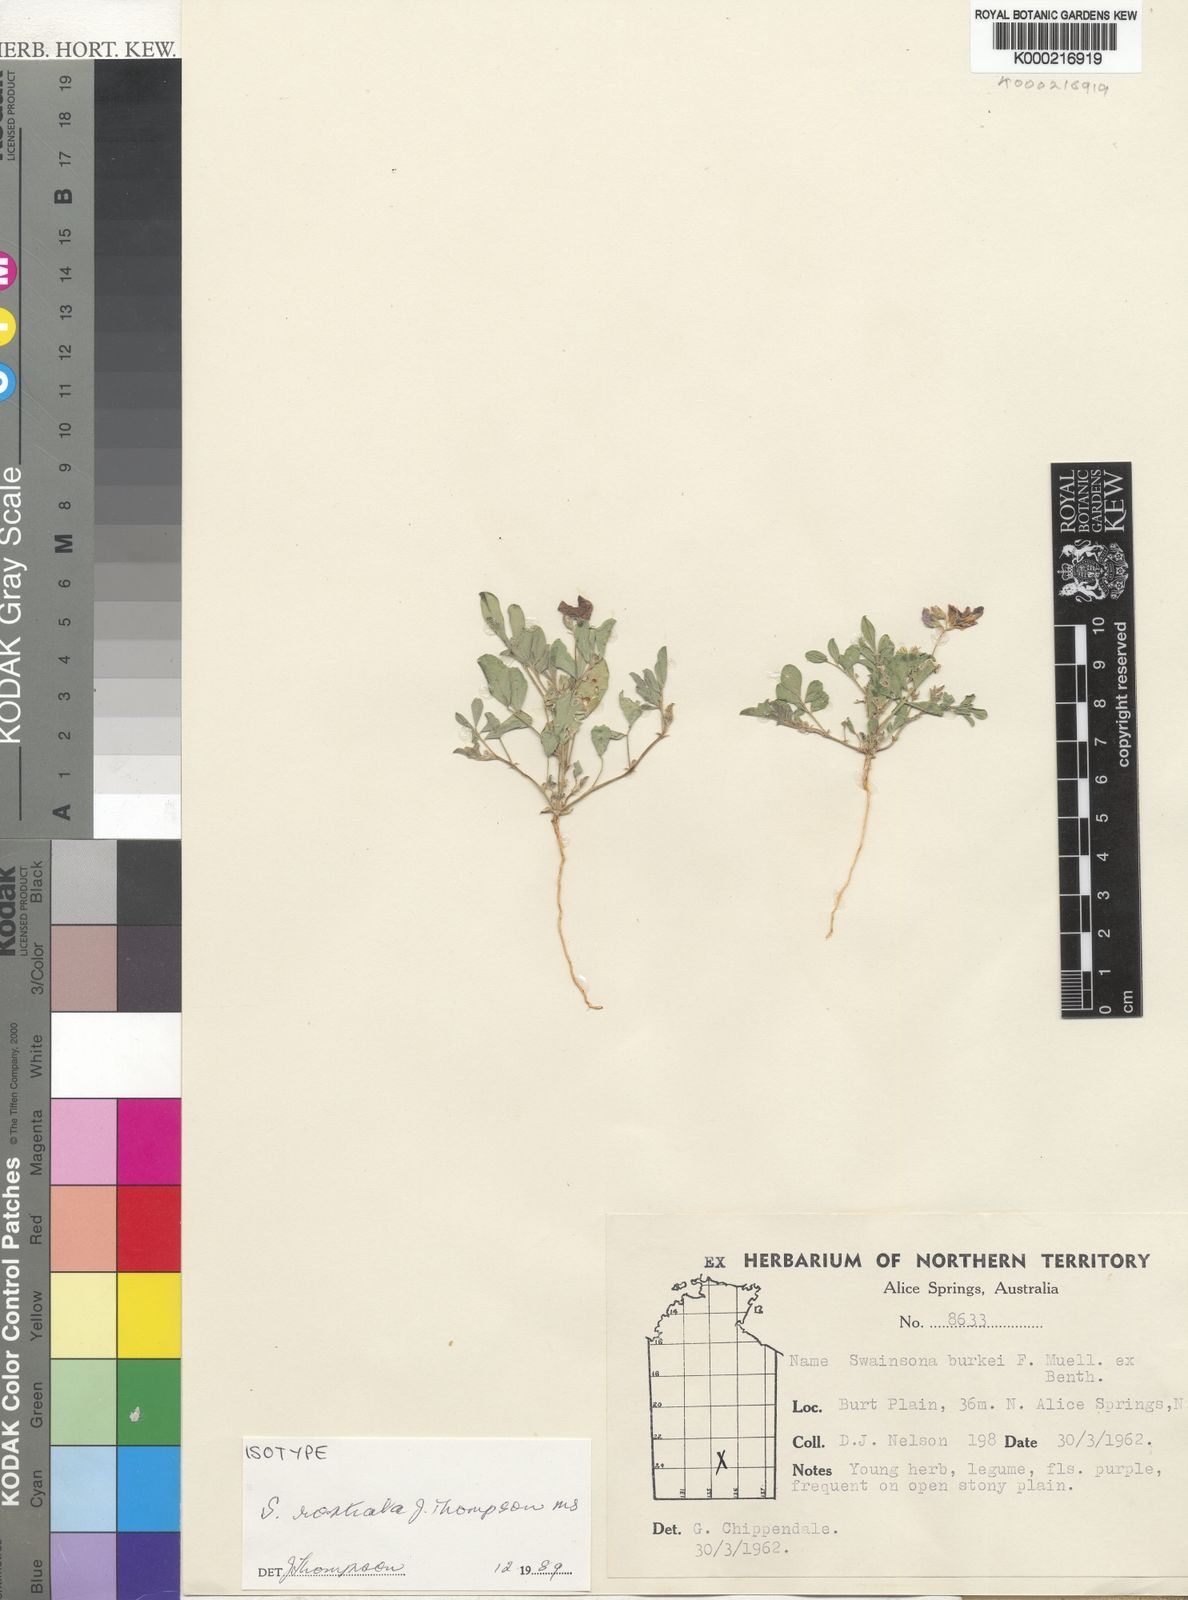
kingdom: Plantae
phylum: Tracheophyta
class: Magnoliopsida
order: Fabales
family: Fabaceae
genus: Swainsona
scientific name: Swainsona rostrata
